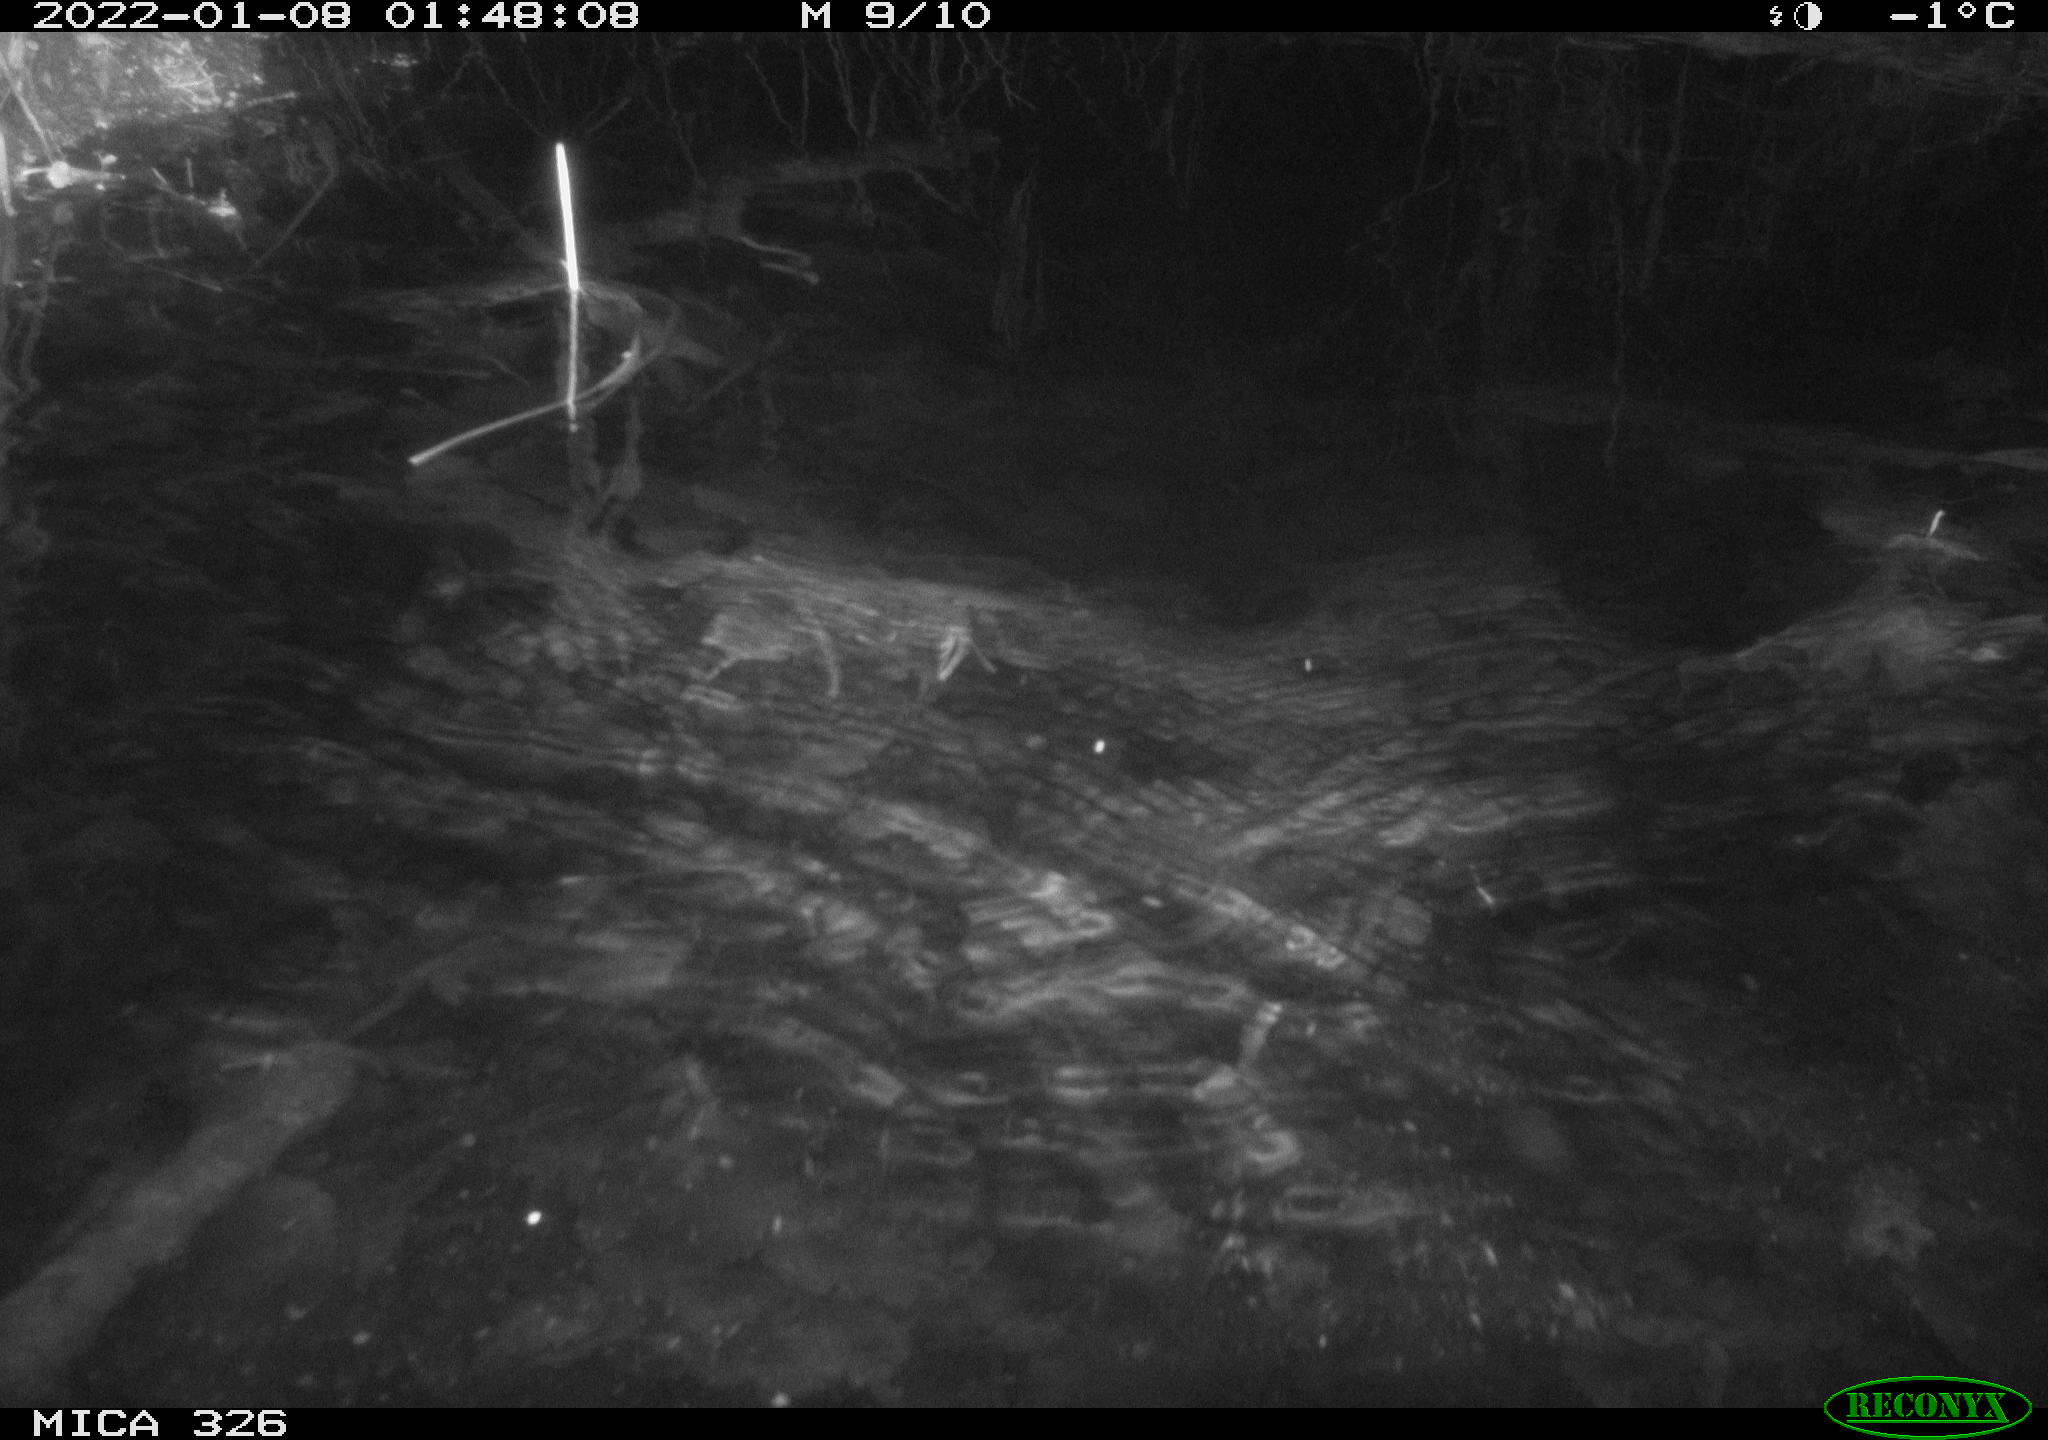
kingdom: Animalia
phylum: Chordata
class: Mammalia
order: Rodentia
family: Muridae
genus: Rattus
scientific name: Rattus norvegicus
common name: Brown rat
